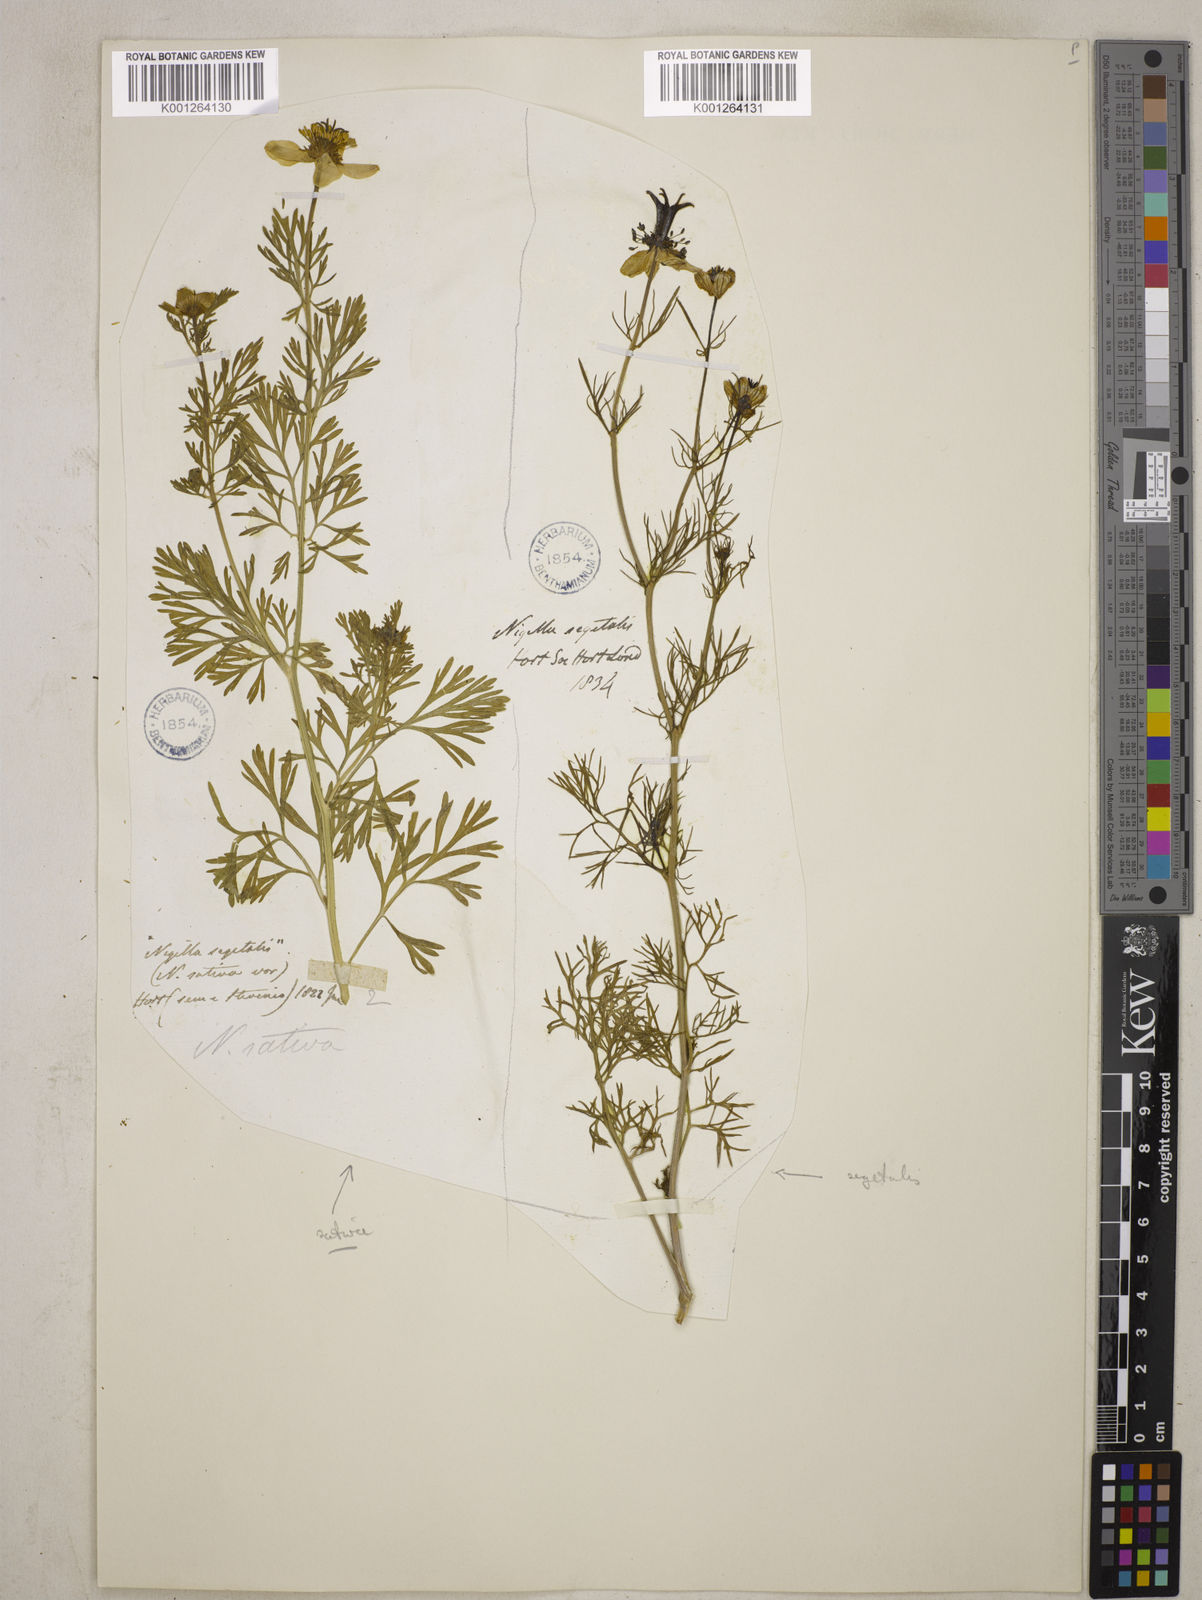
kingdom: Plantae
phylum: Tracheophyta
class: Magnoliopsida
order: Ranunculales
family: Ranunculaceae
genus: Nigella
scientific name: Nigella sativa
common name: Black-cumin
